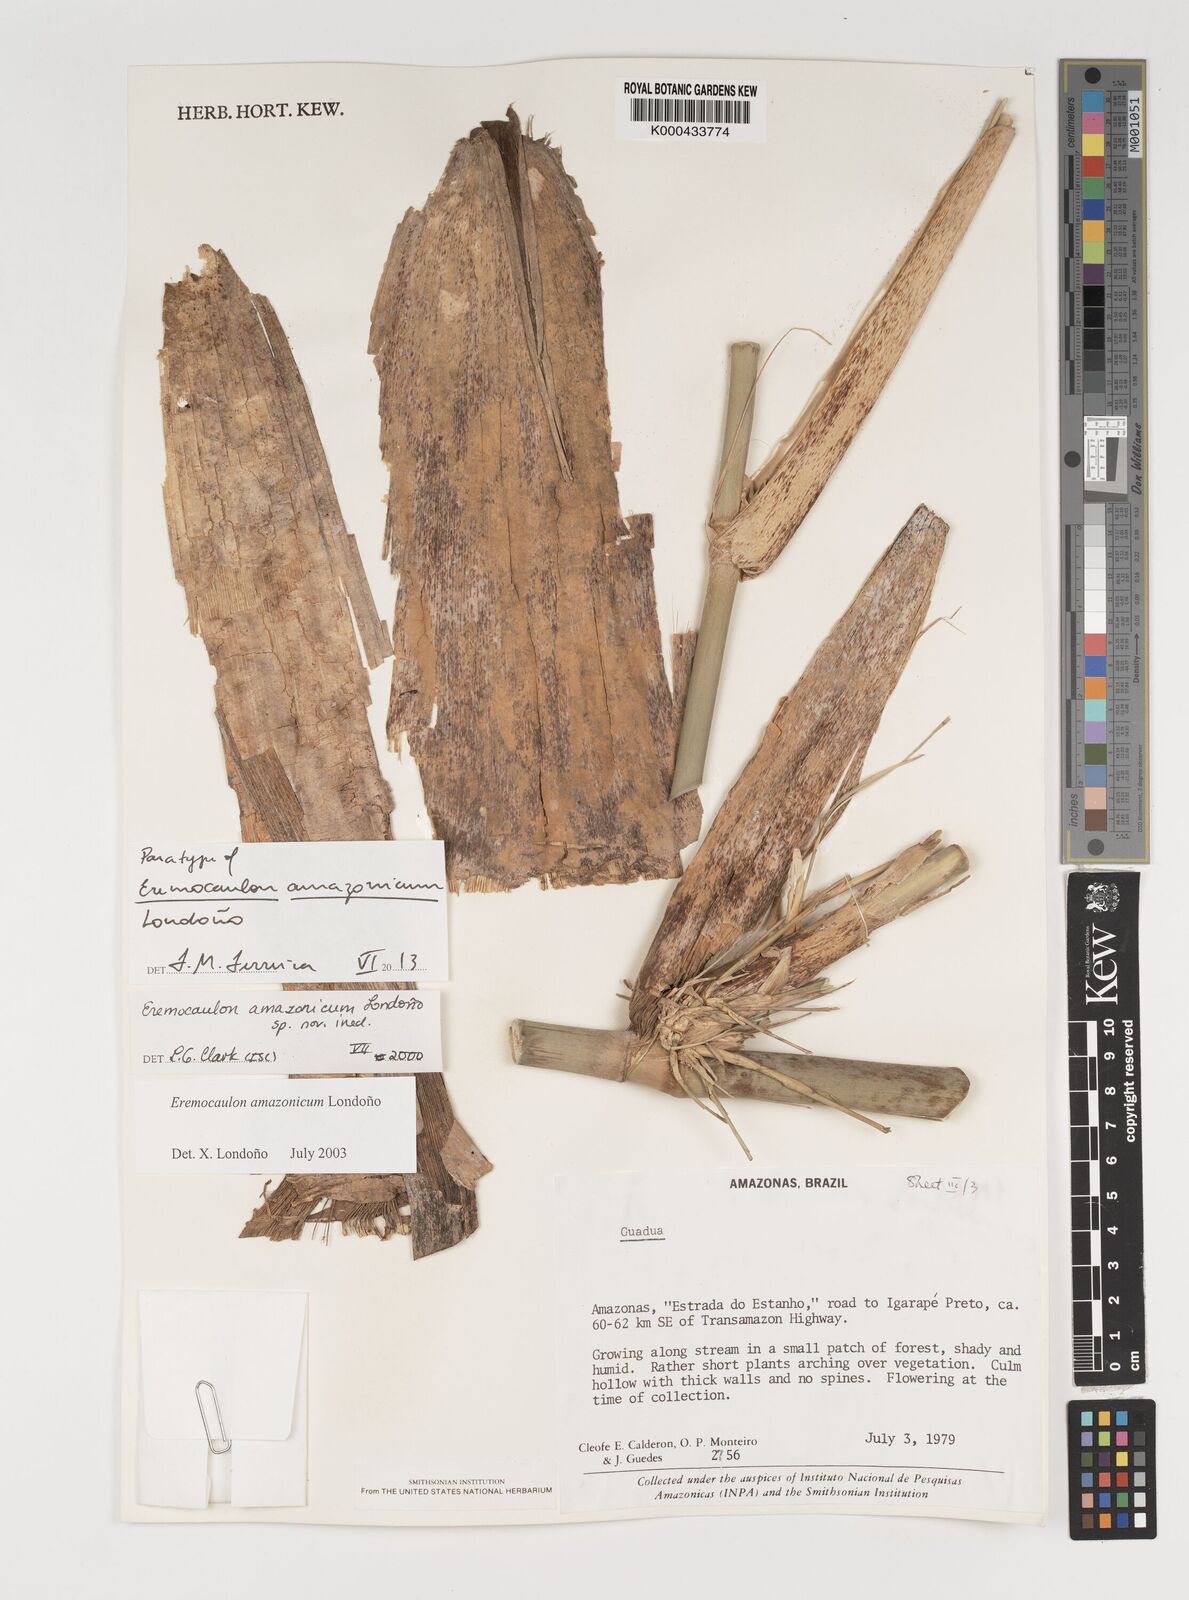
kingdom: Plantae
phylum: Tracheophyta
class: Liliopsida
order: Poales
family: Poaceae
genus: Eremocaulon
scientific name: Eremocaulon
